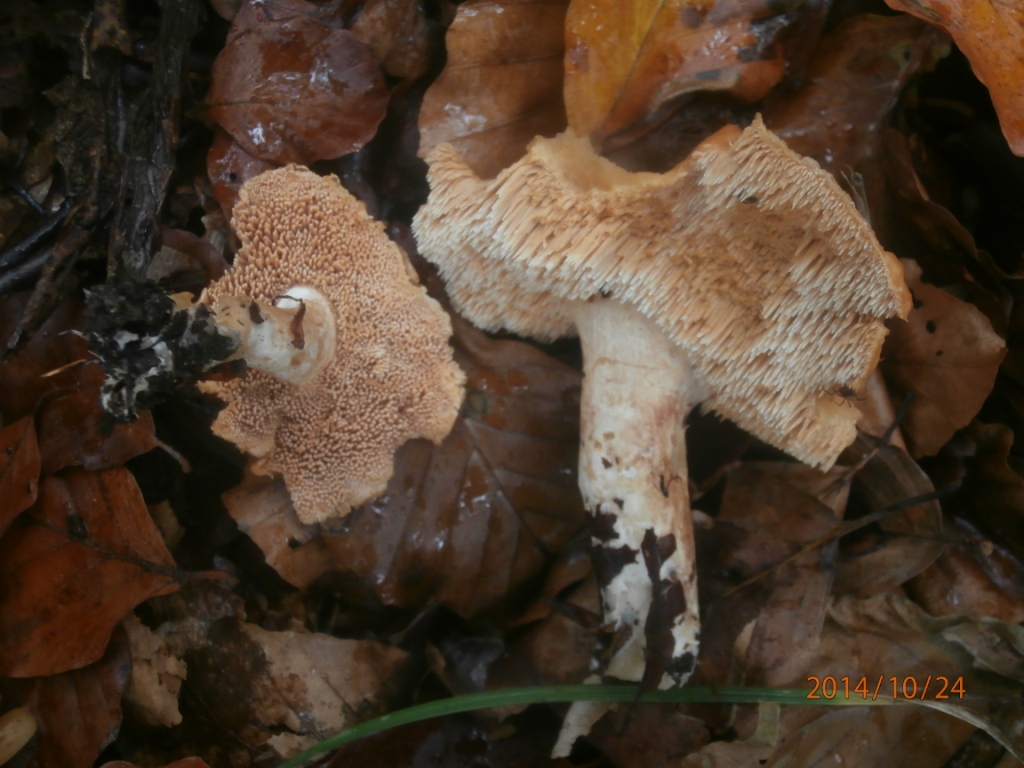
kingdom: Fungi
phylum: Basidiomycota
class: Agaricomycetes
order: Cantharellales
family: Hydnaceae
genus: Hydnum
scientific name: Hydnum rufescens
